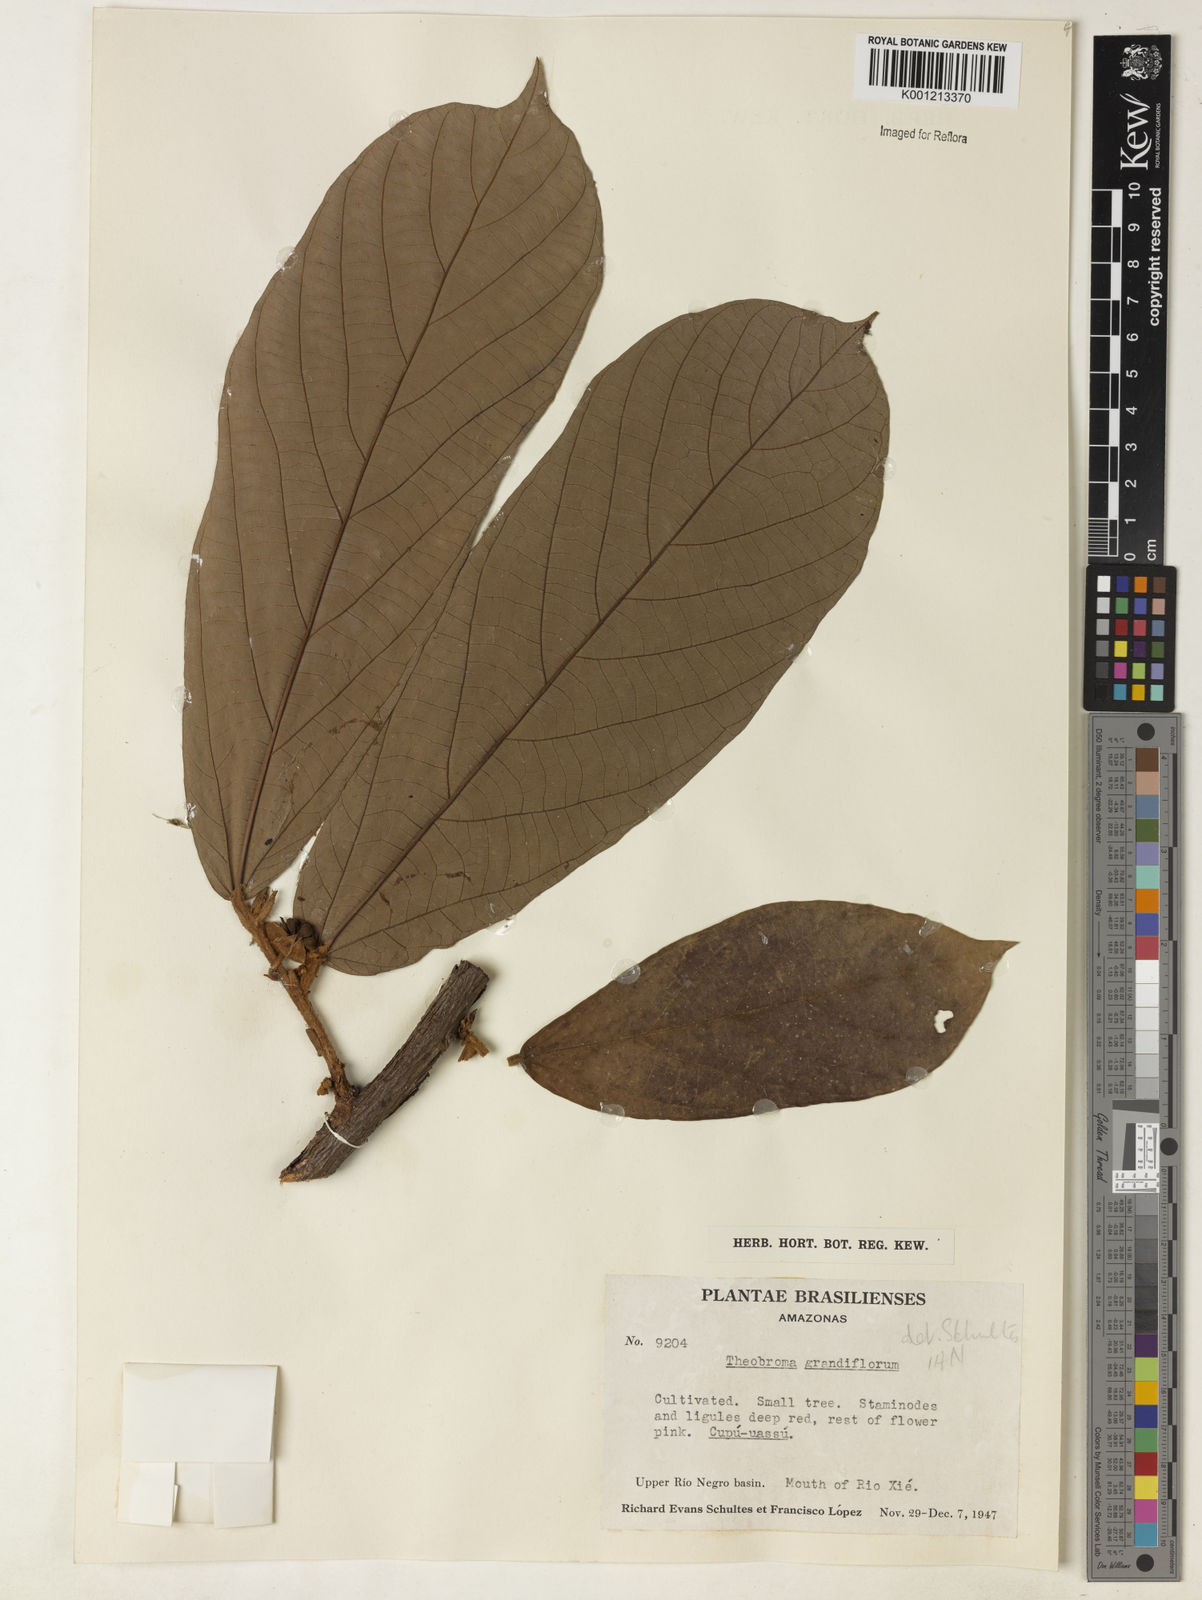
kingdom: Plantae
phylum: Tracheophyta
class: Magnoliopsida
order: Malvales
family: Malvaceae
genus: Theobroma
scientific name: Theobroma grandiflorum
